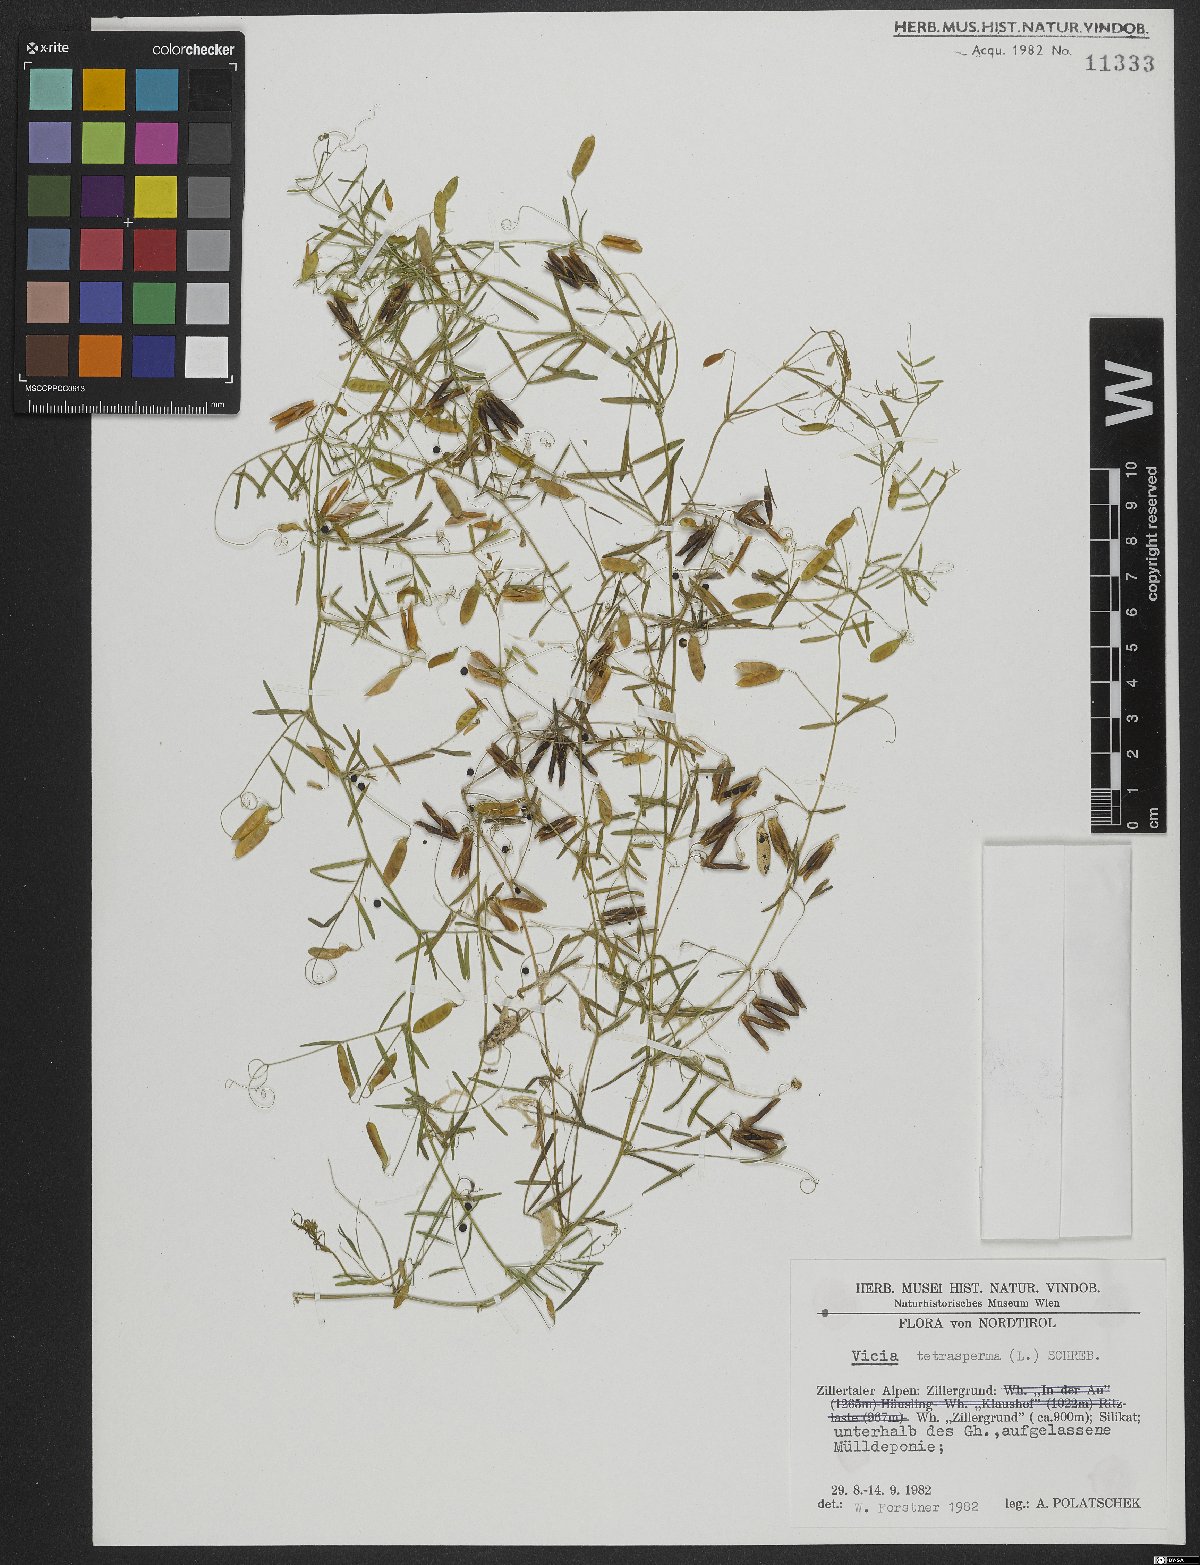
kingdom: Plantae
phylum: Tracheophyta
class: Magnoliopsida
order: Fabales
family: Fabaceae
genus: Vicia
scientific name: Vicia tetrasperma
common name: Smooth tare
